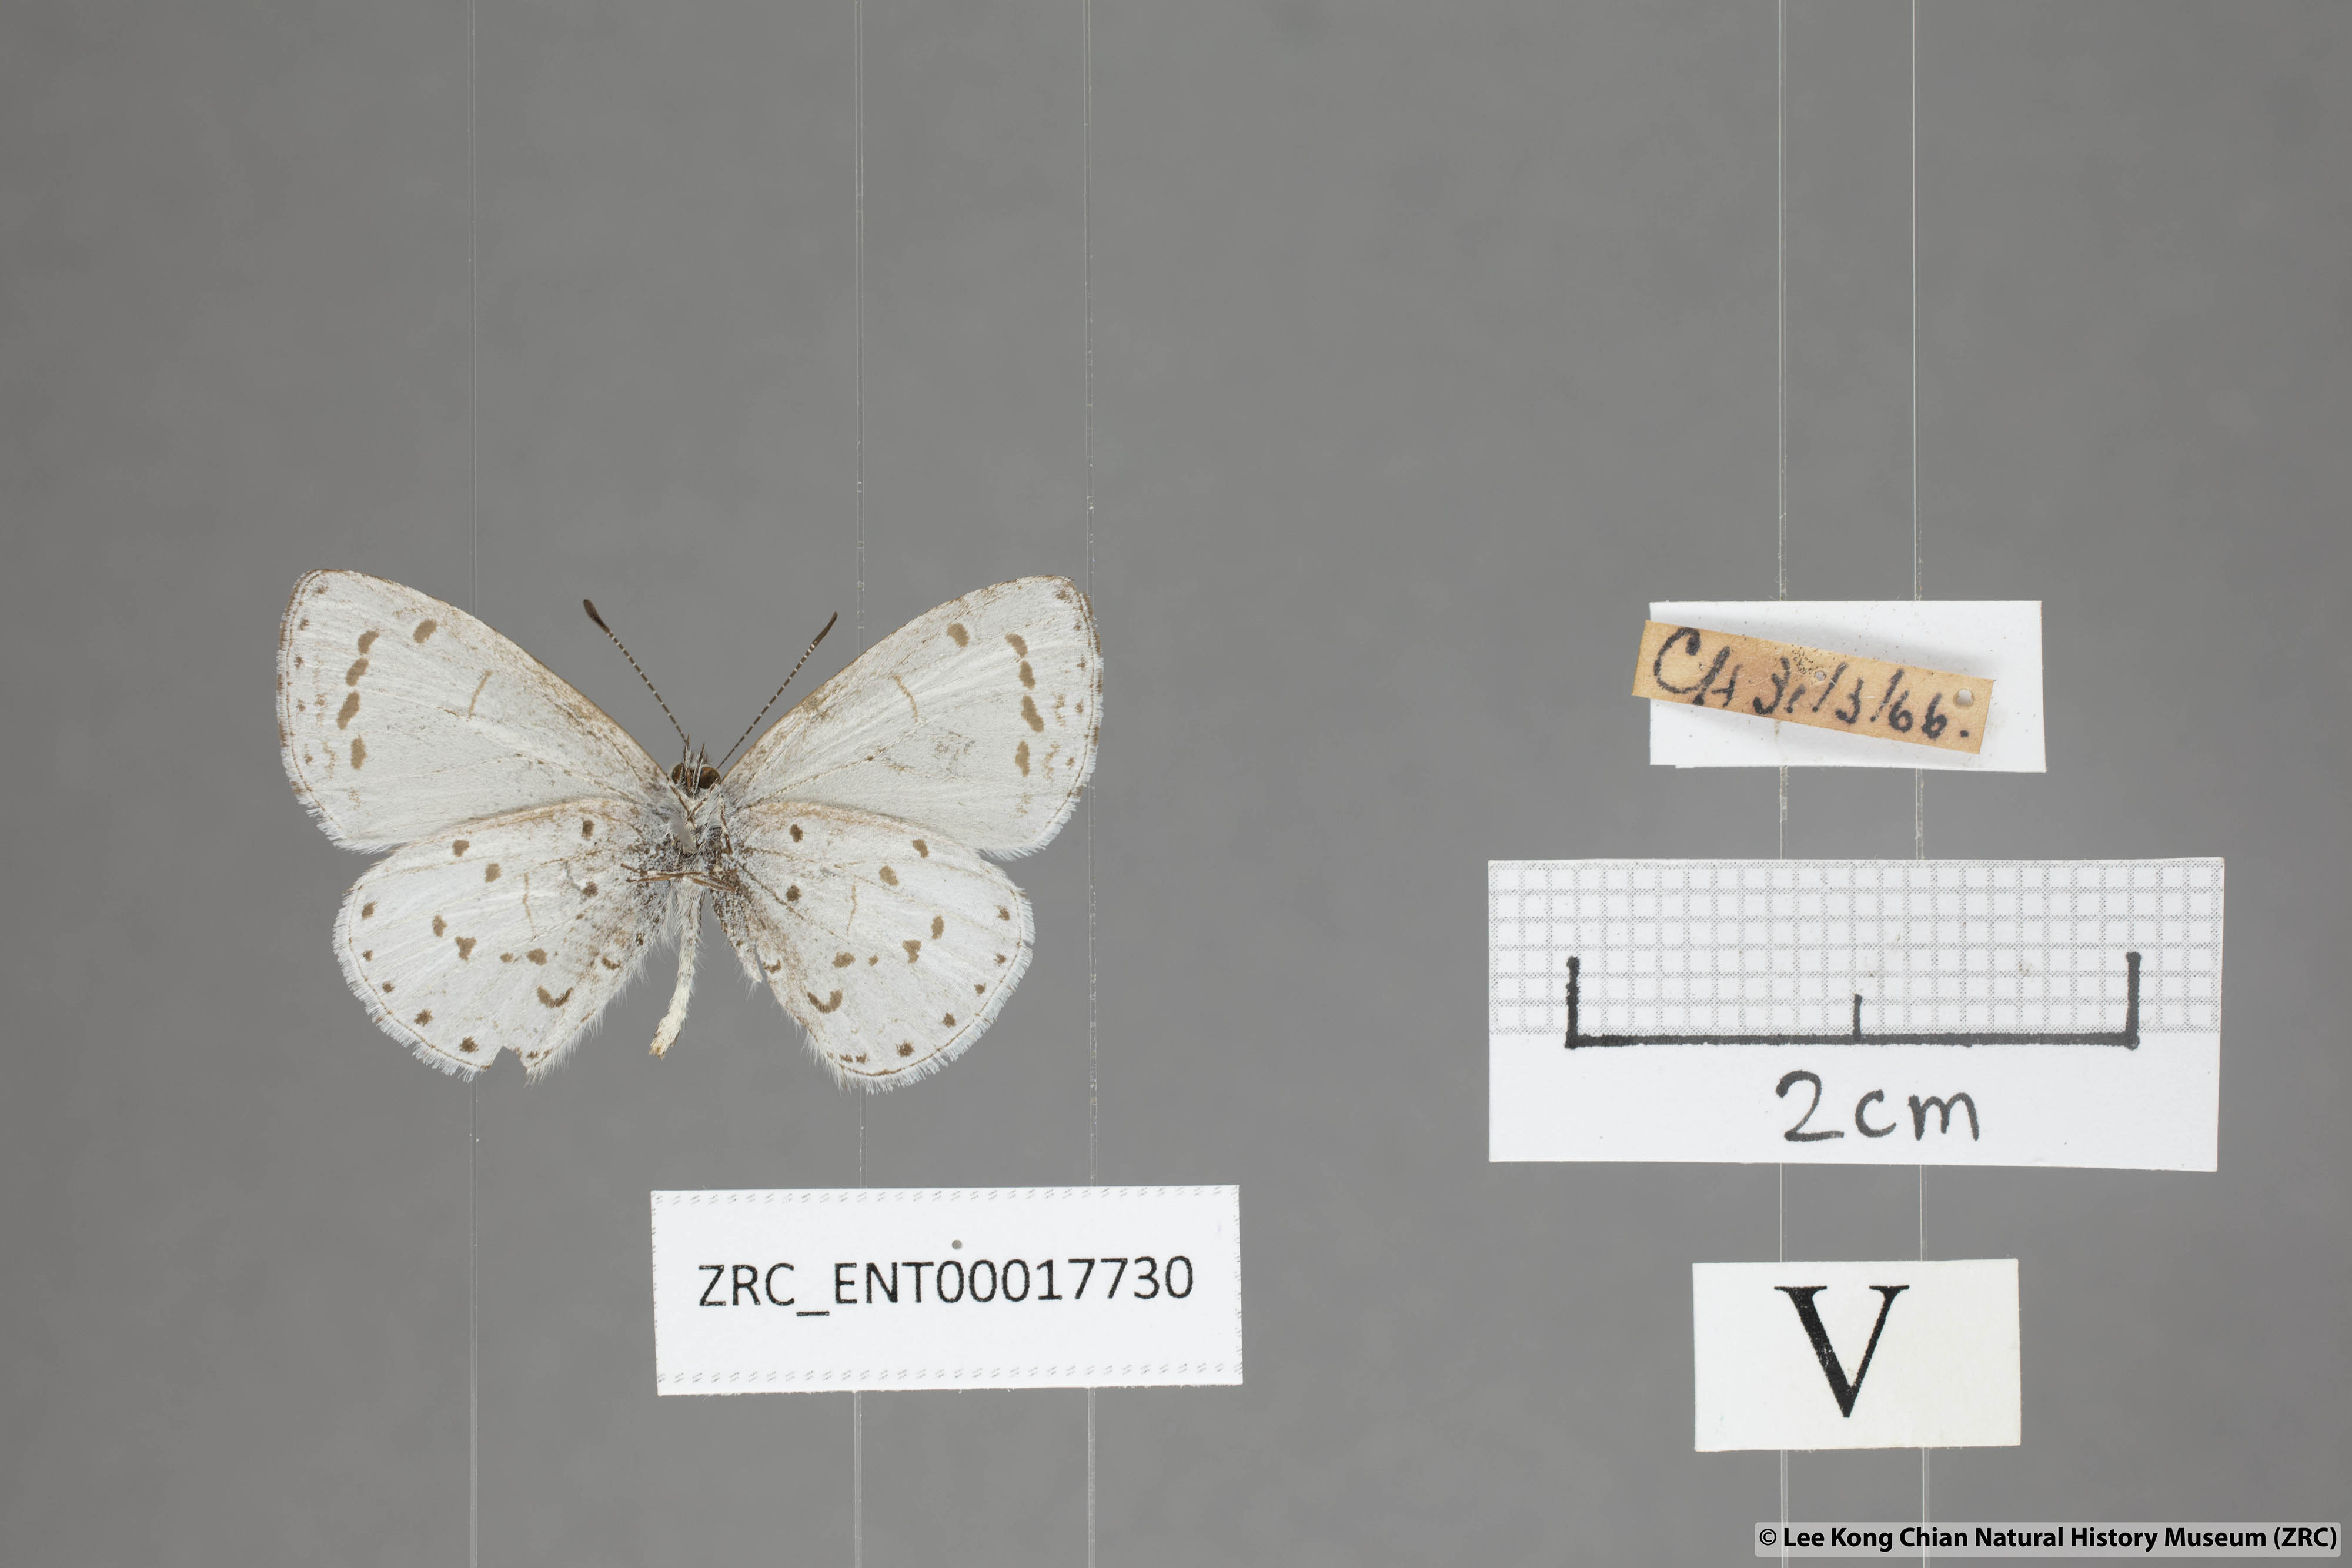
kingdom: Animalia
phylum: Arthropoda
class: Insecta
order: Lepidoptera
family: Lycaenidae
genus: Udara
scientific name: Udara
